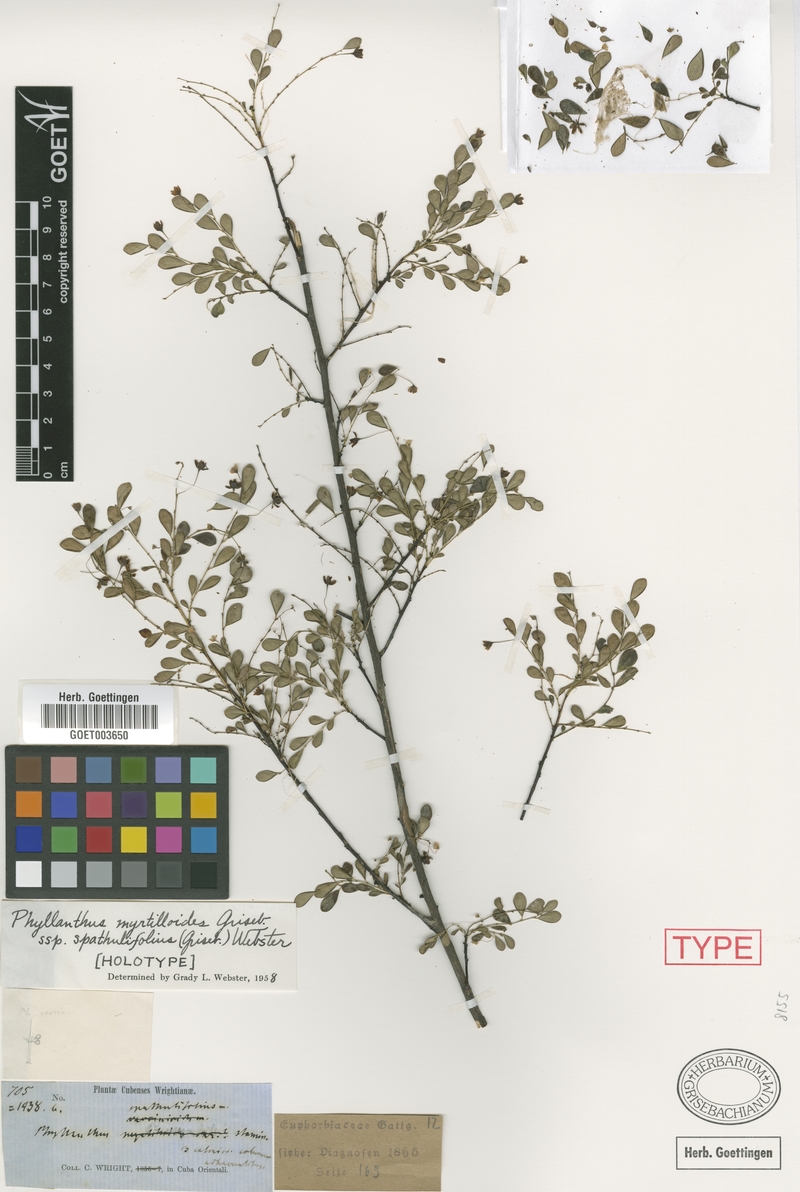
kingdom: Plantae
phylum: Tracheophyta
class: Magnoliopsida
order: Malpighiales
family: Phyllanthaceae
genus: Phyllanthus
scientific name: Phyllanthus myrtilloides
